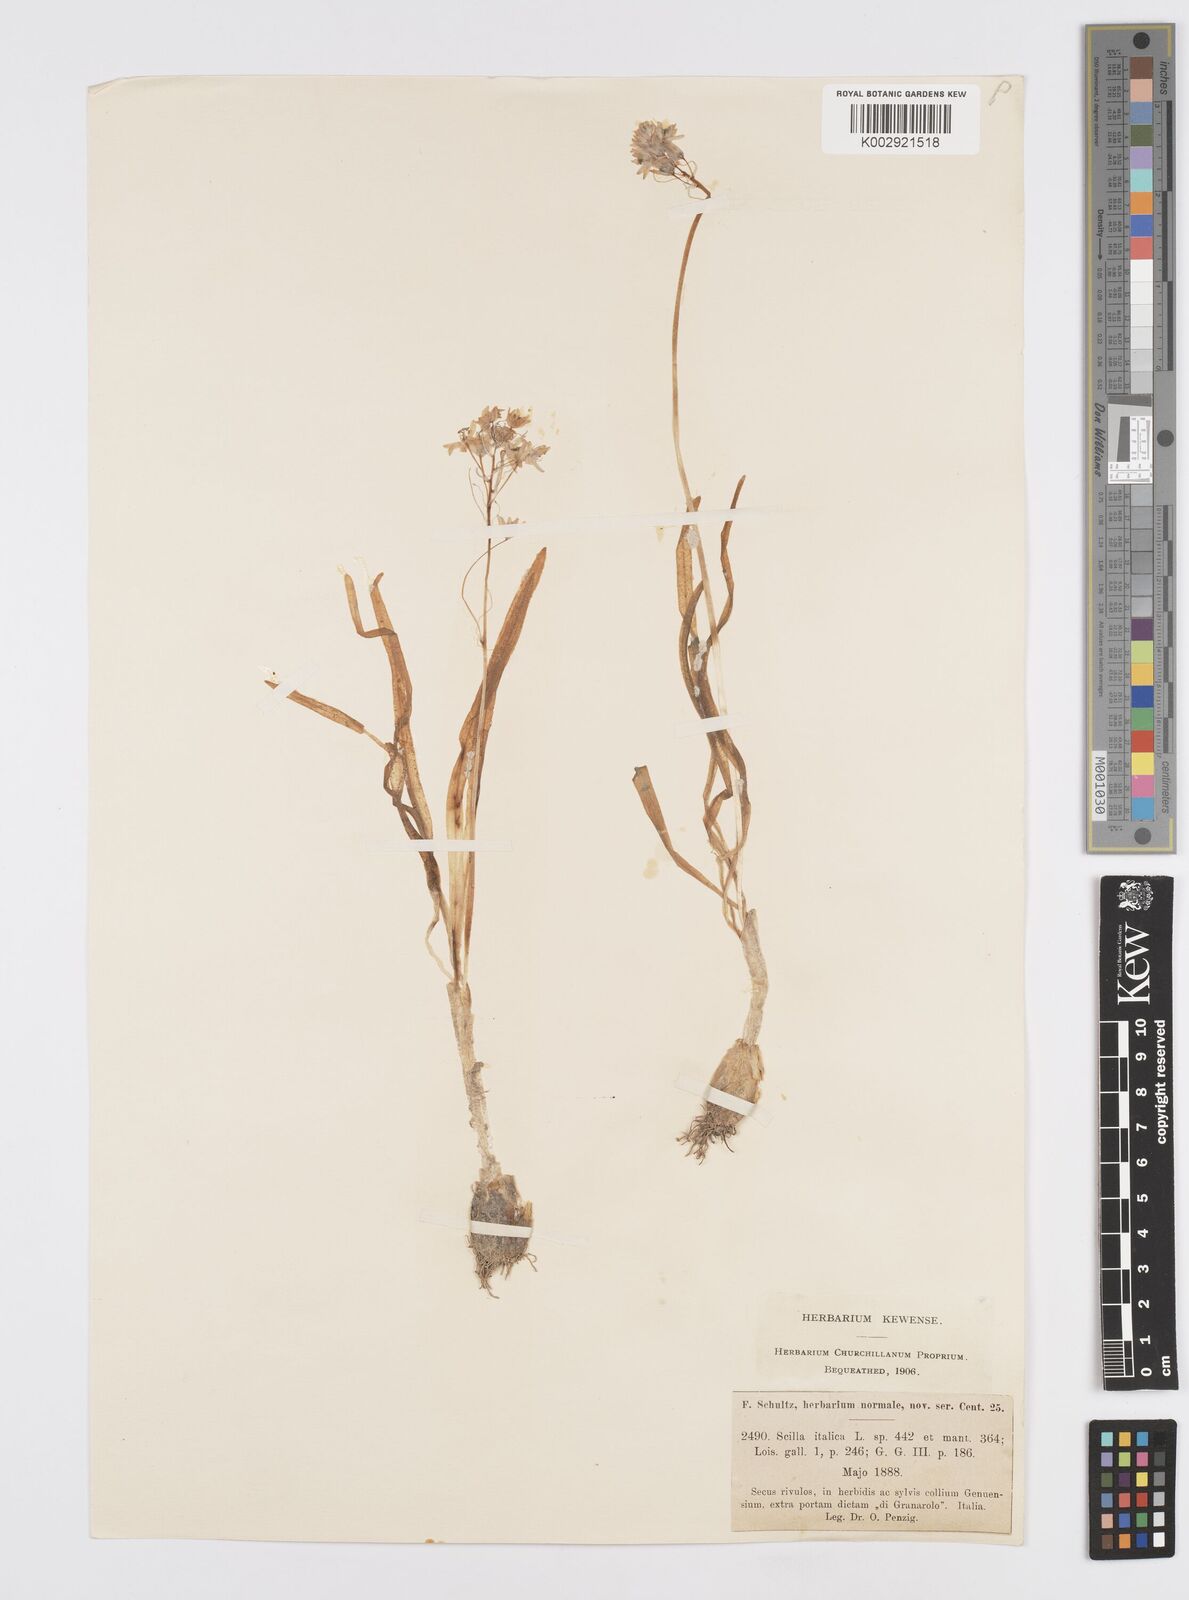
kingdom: Plantae
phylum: Tracheophyta
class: Liliopsida
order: Asparagales
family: Asparagaceae
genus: Hyacinthoides
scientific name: Hyacinthoides italica
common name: Italian bluebell
